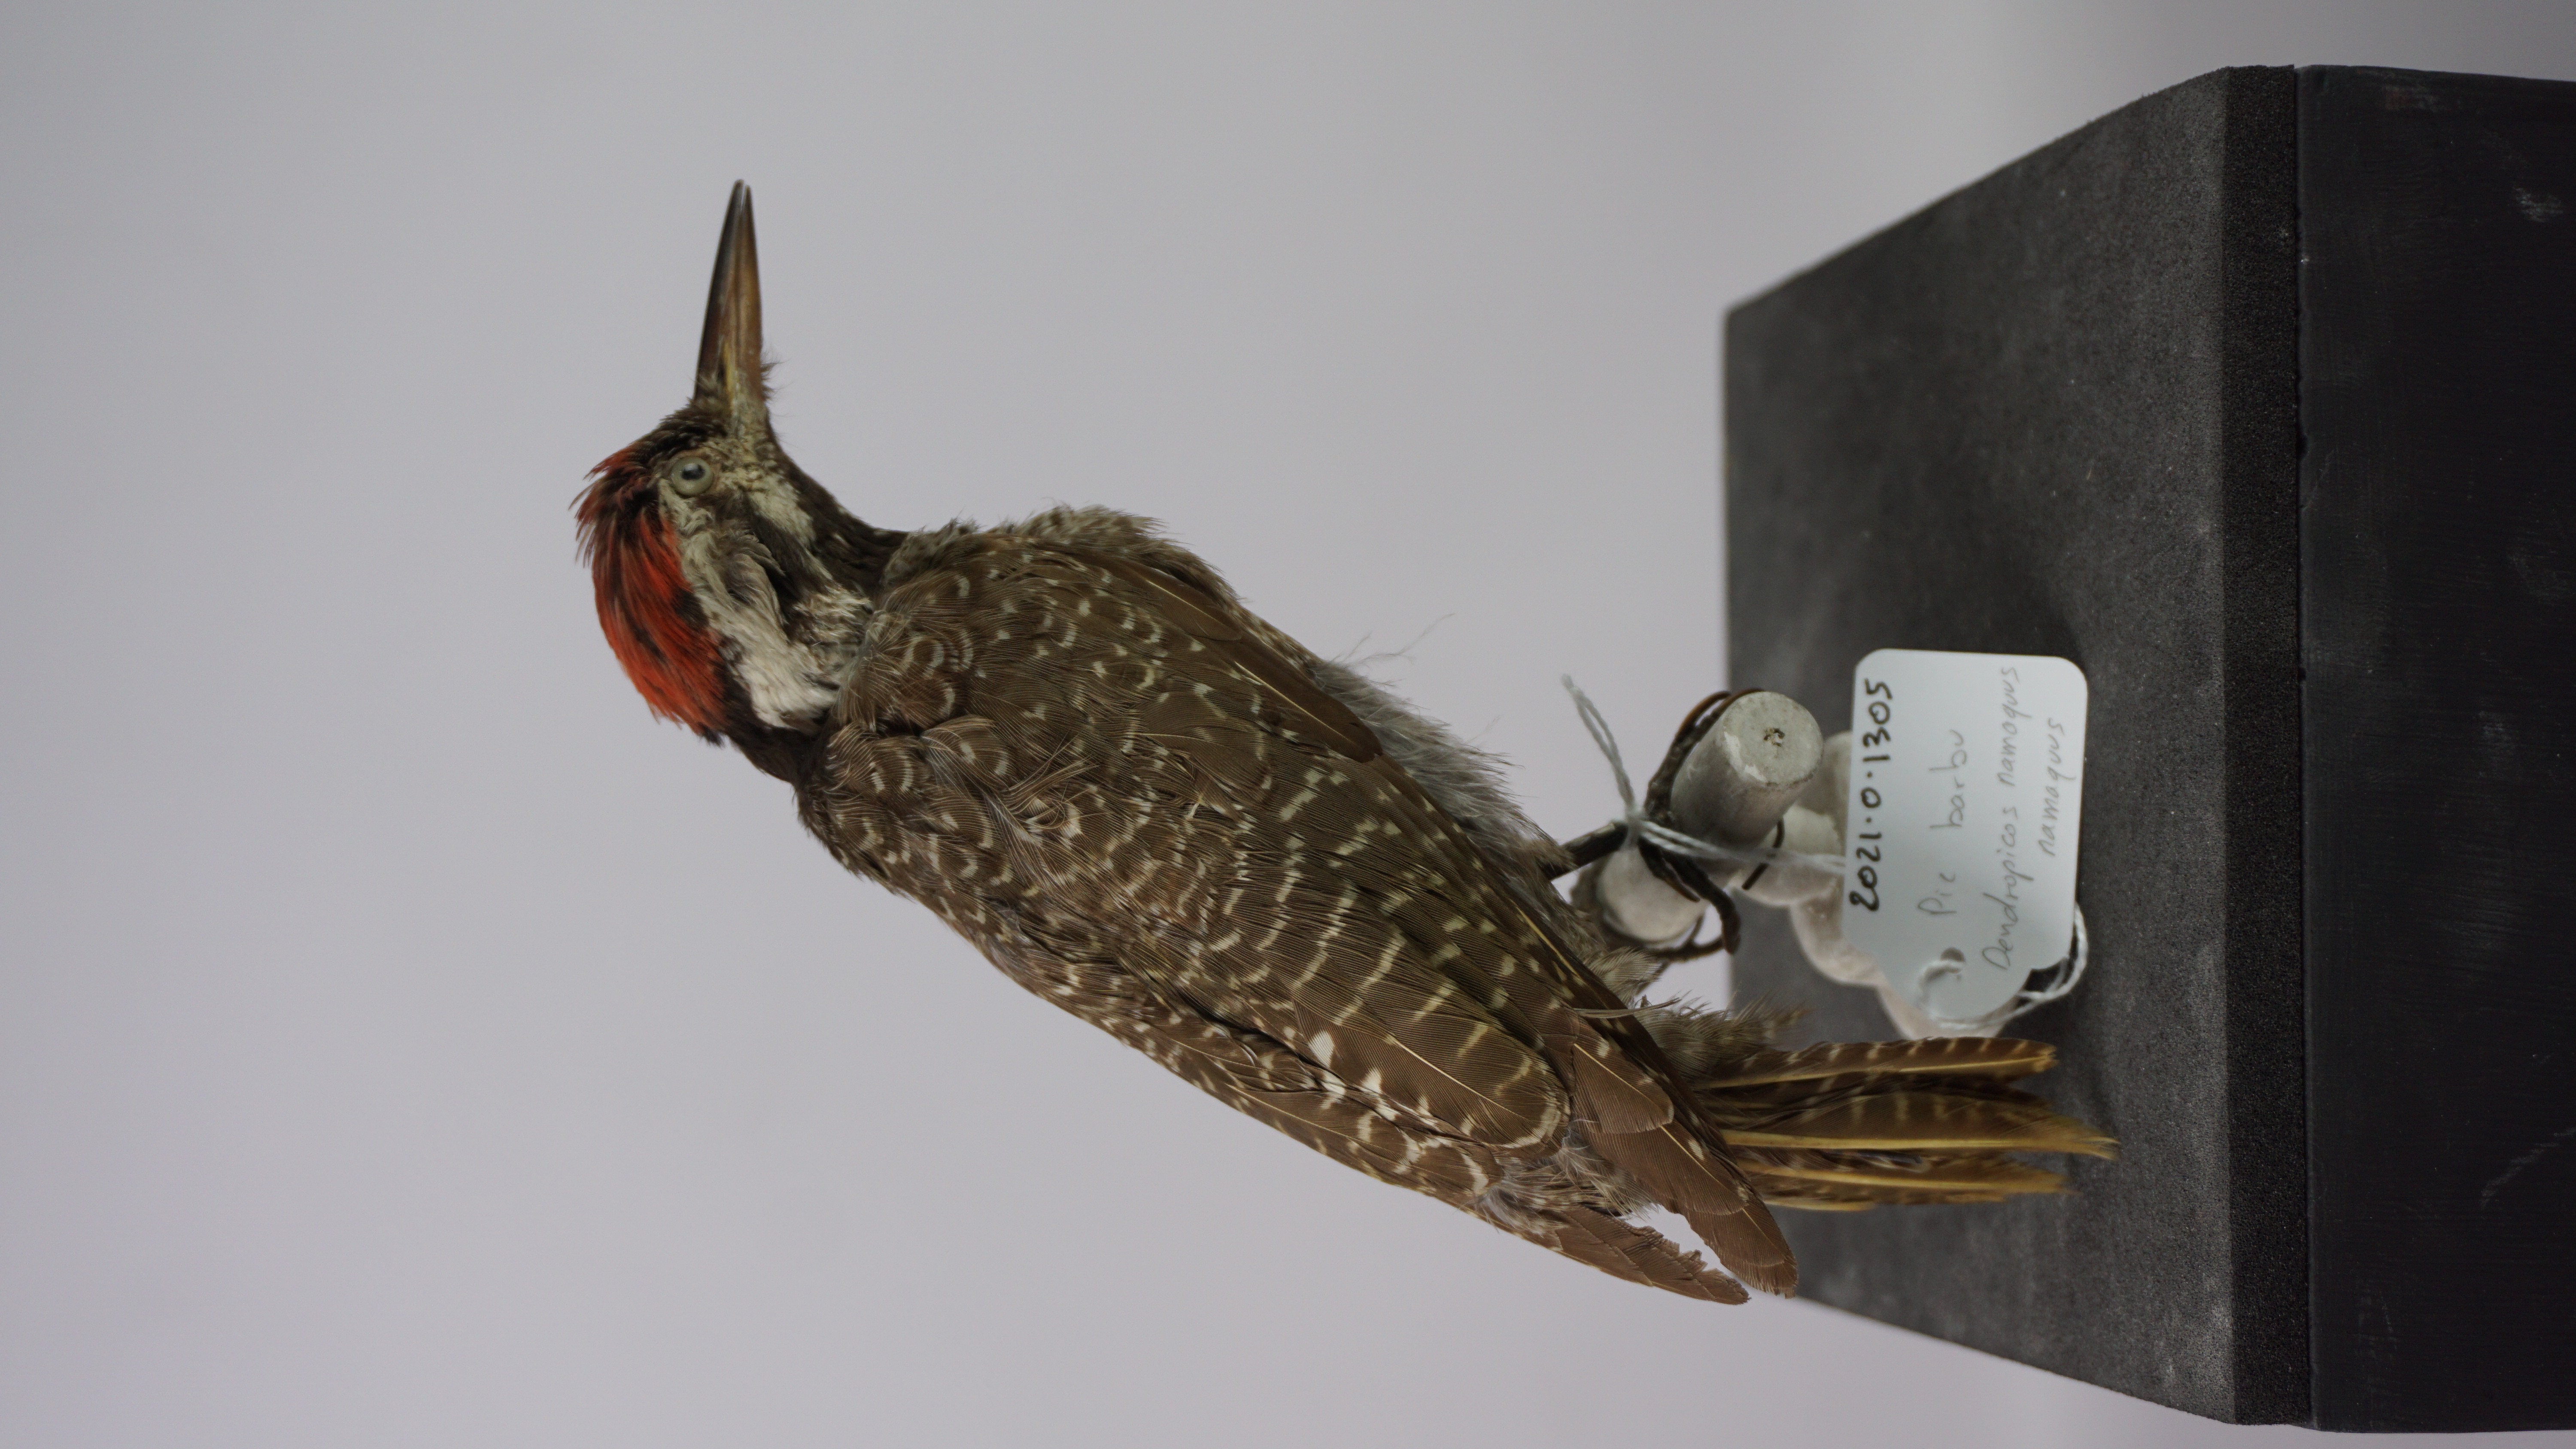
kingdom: Animalia
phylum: Chordata
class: Aves
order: Piciformes
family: Picidae
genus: Chloropicus
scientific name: Chloropicus namaquus
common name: Bearded woodpecker
